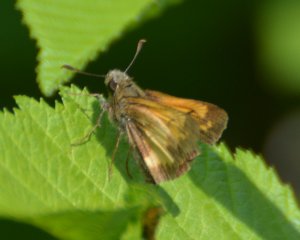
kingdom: Animalia
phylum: Arthropoda
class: Insecta
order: Lepidoptera
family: Hesperiidae
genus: Lon
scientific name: Lon hobomok
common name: Hobomok Skipper
